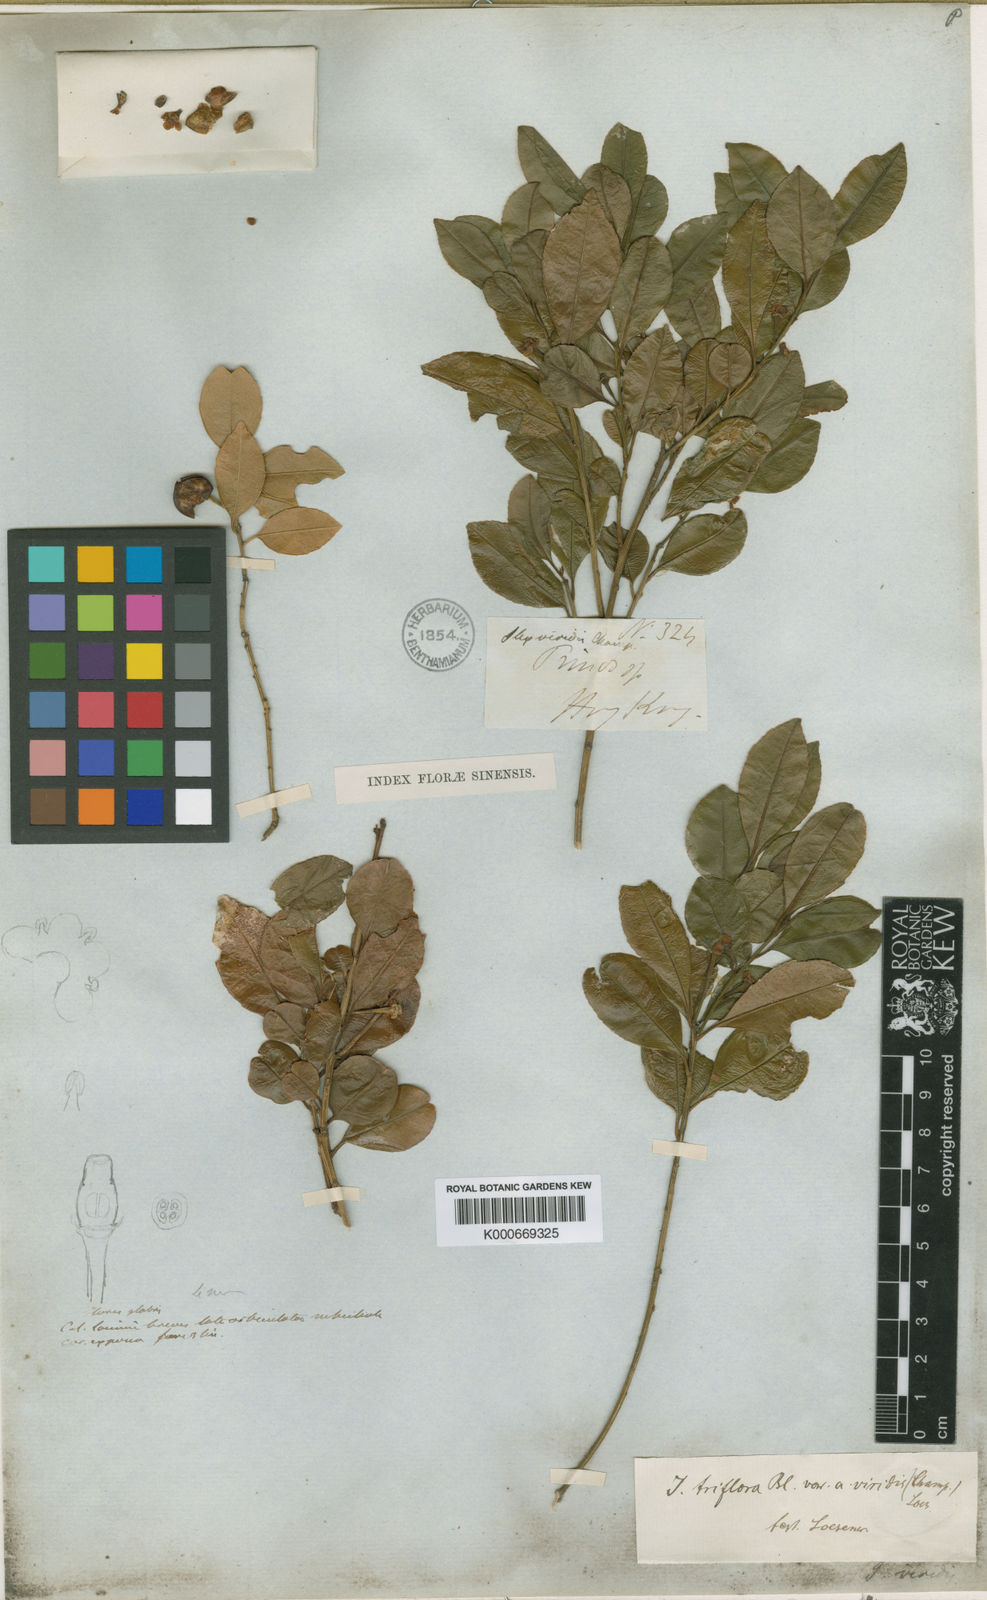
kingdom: Plantae
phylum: Tracheophyta
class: Magnoliopsida
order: Aquifoliales
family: Aquifoliaceae
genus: Ilex
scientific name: Ilex viridis
